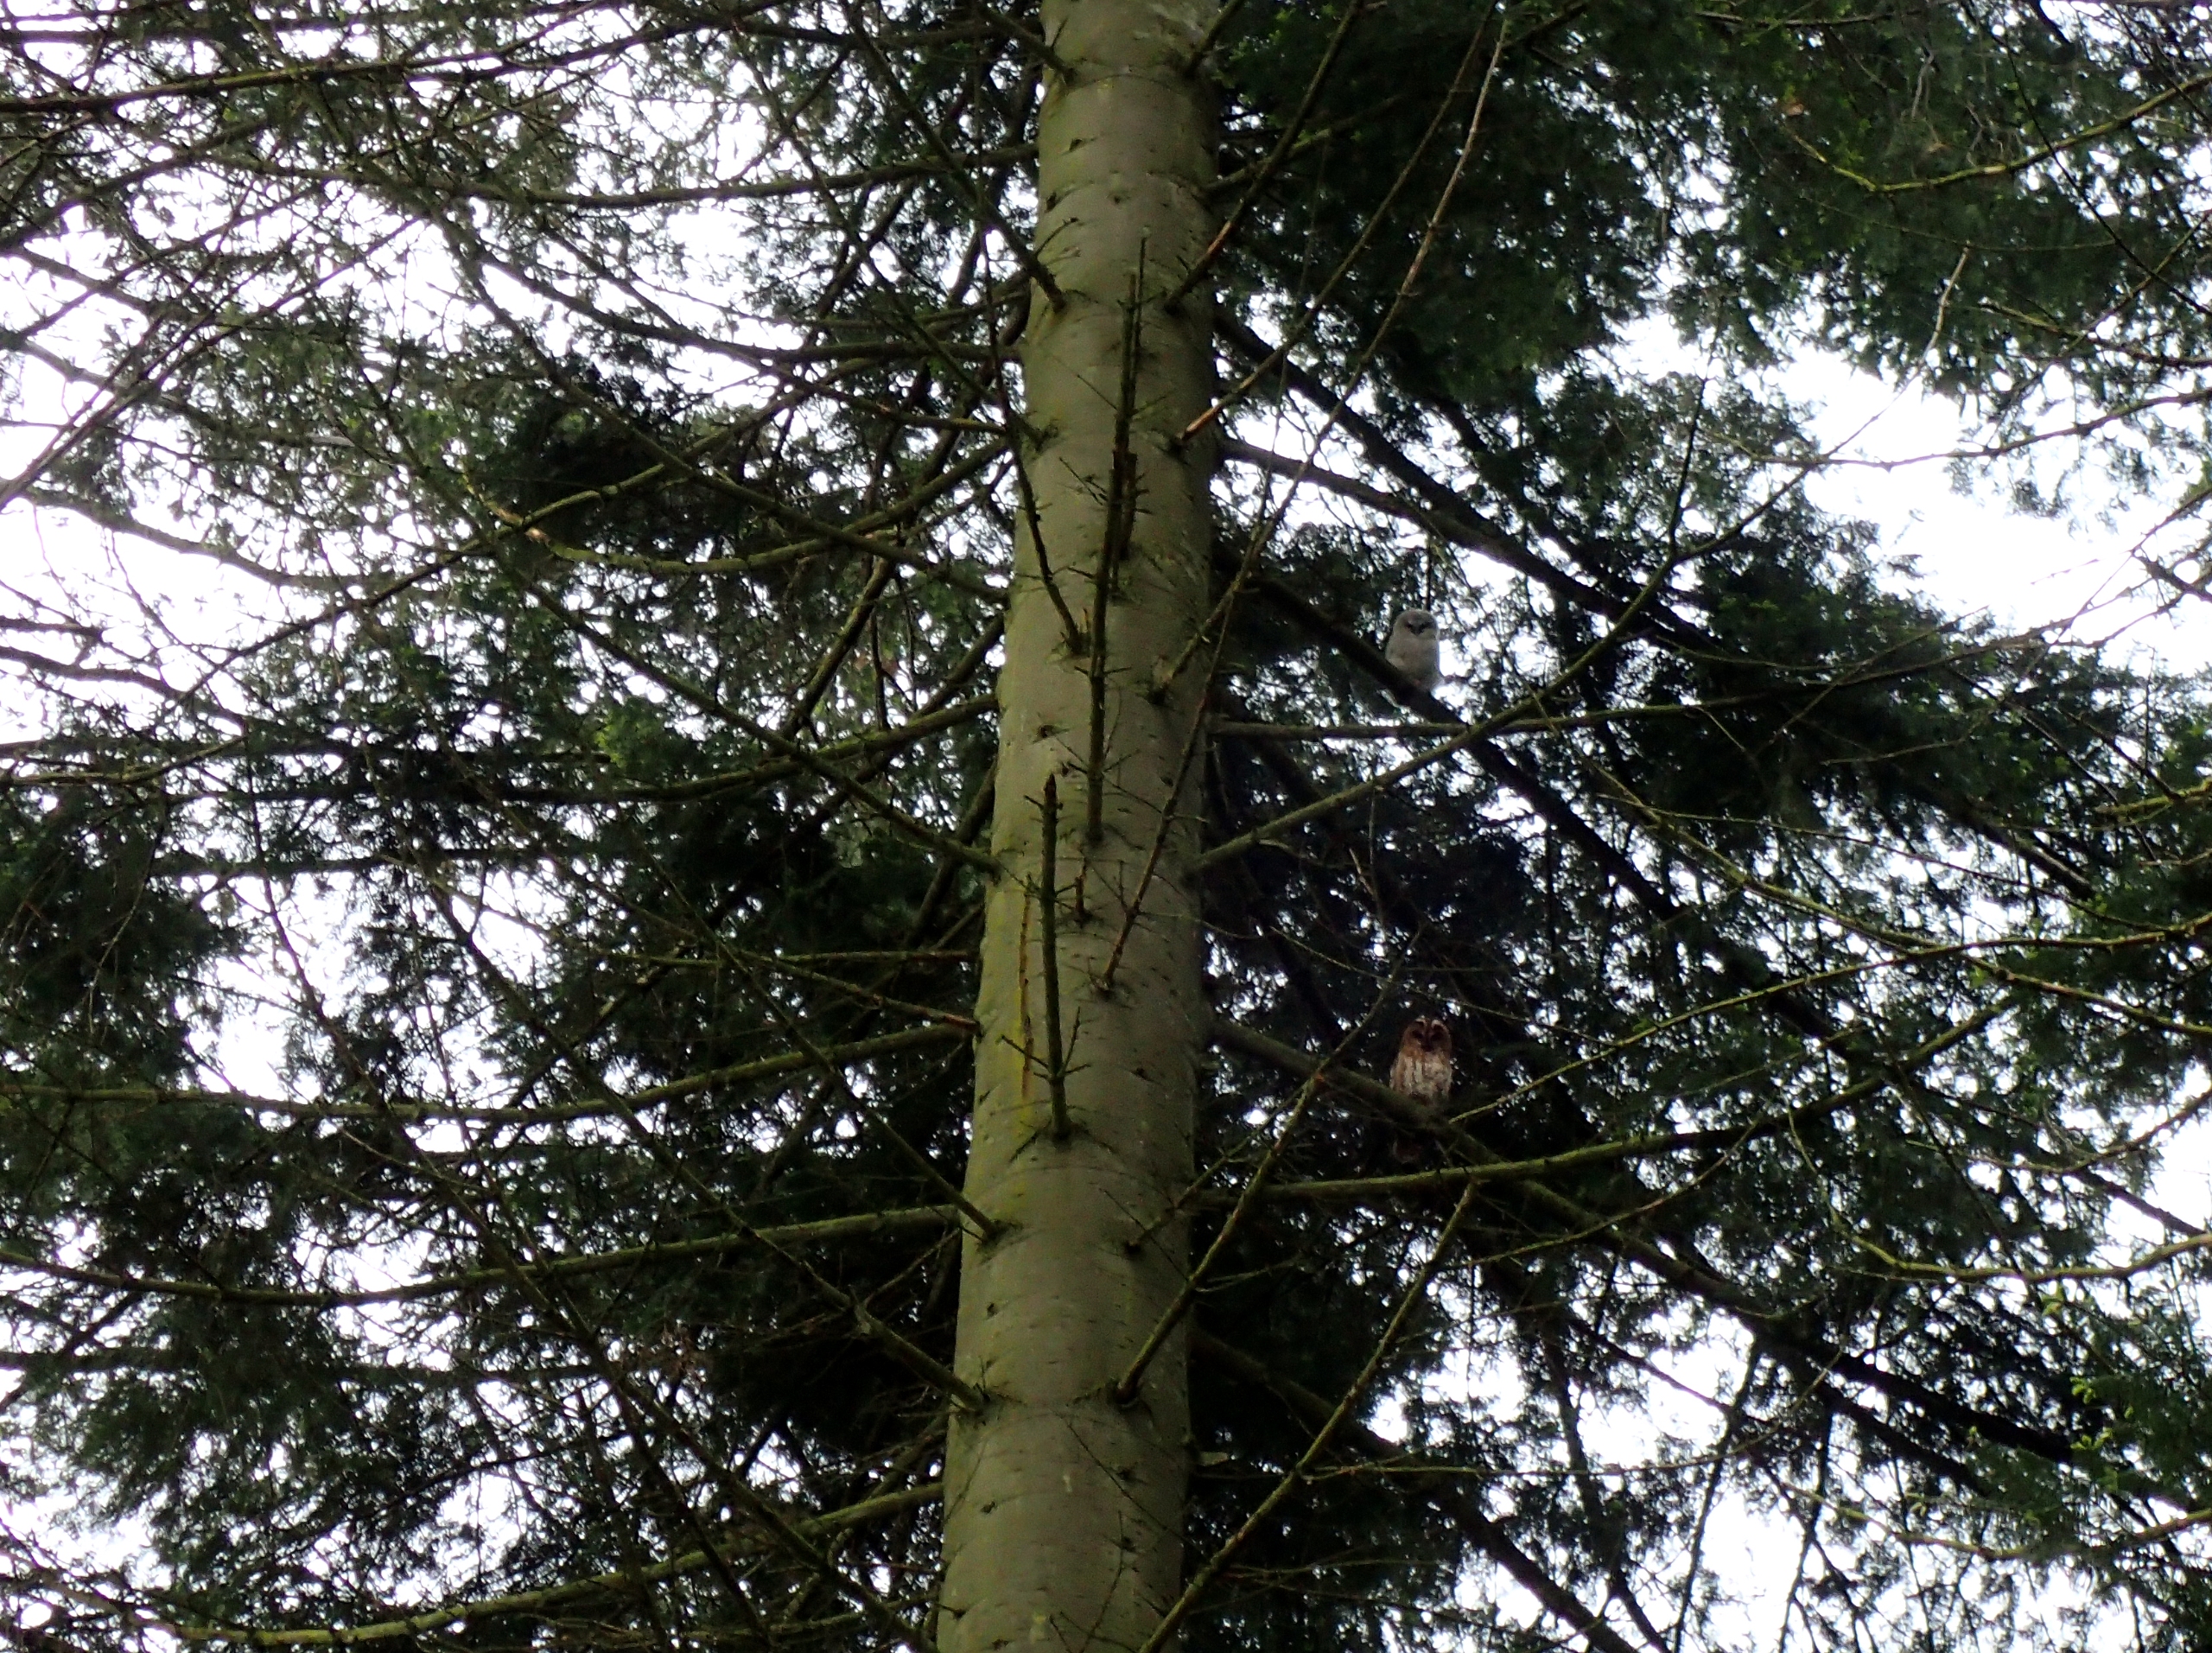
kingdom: Animalia
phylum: Chordata
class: Aves
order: Strigiformes
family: Strigidae
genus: Strix
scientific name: Strix aluco
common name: Natugle
